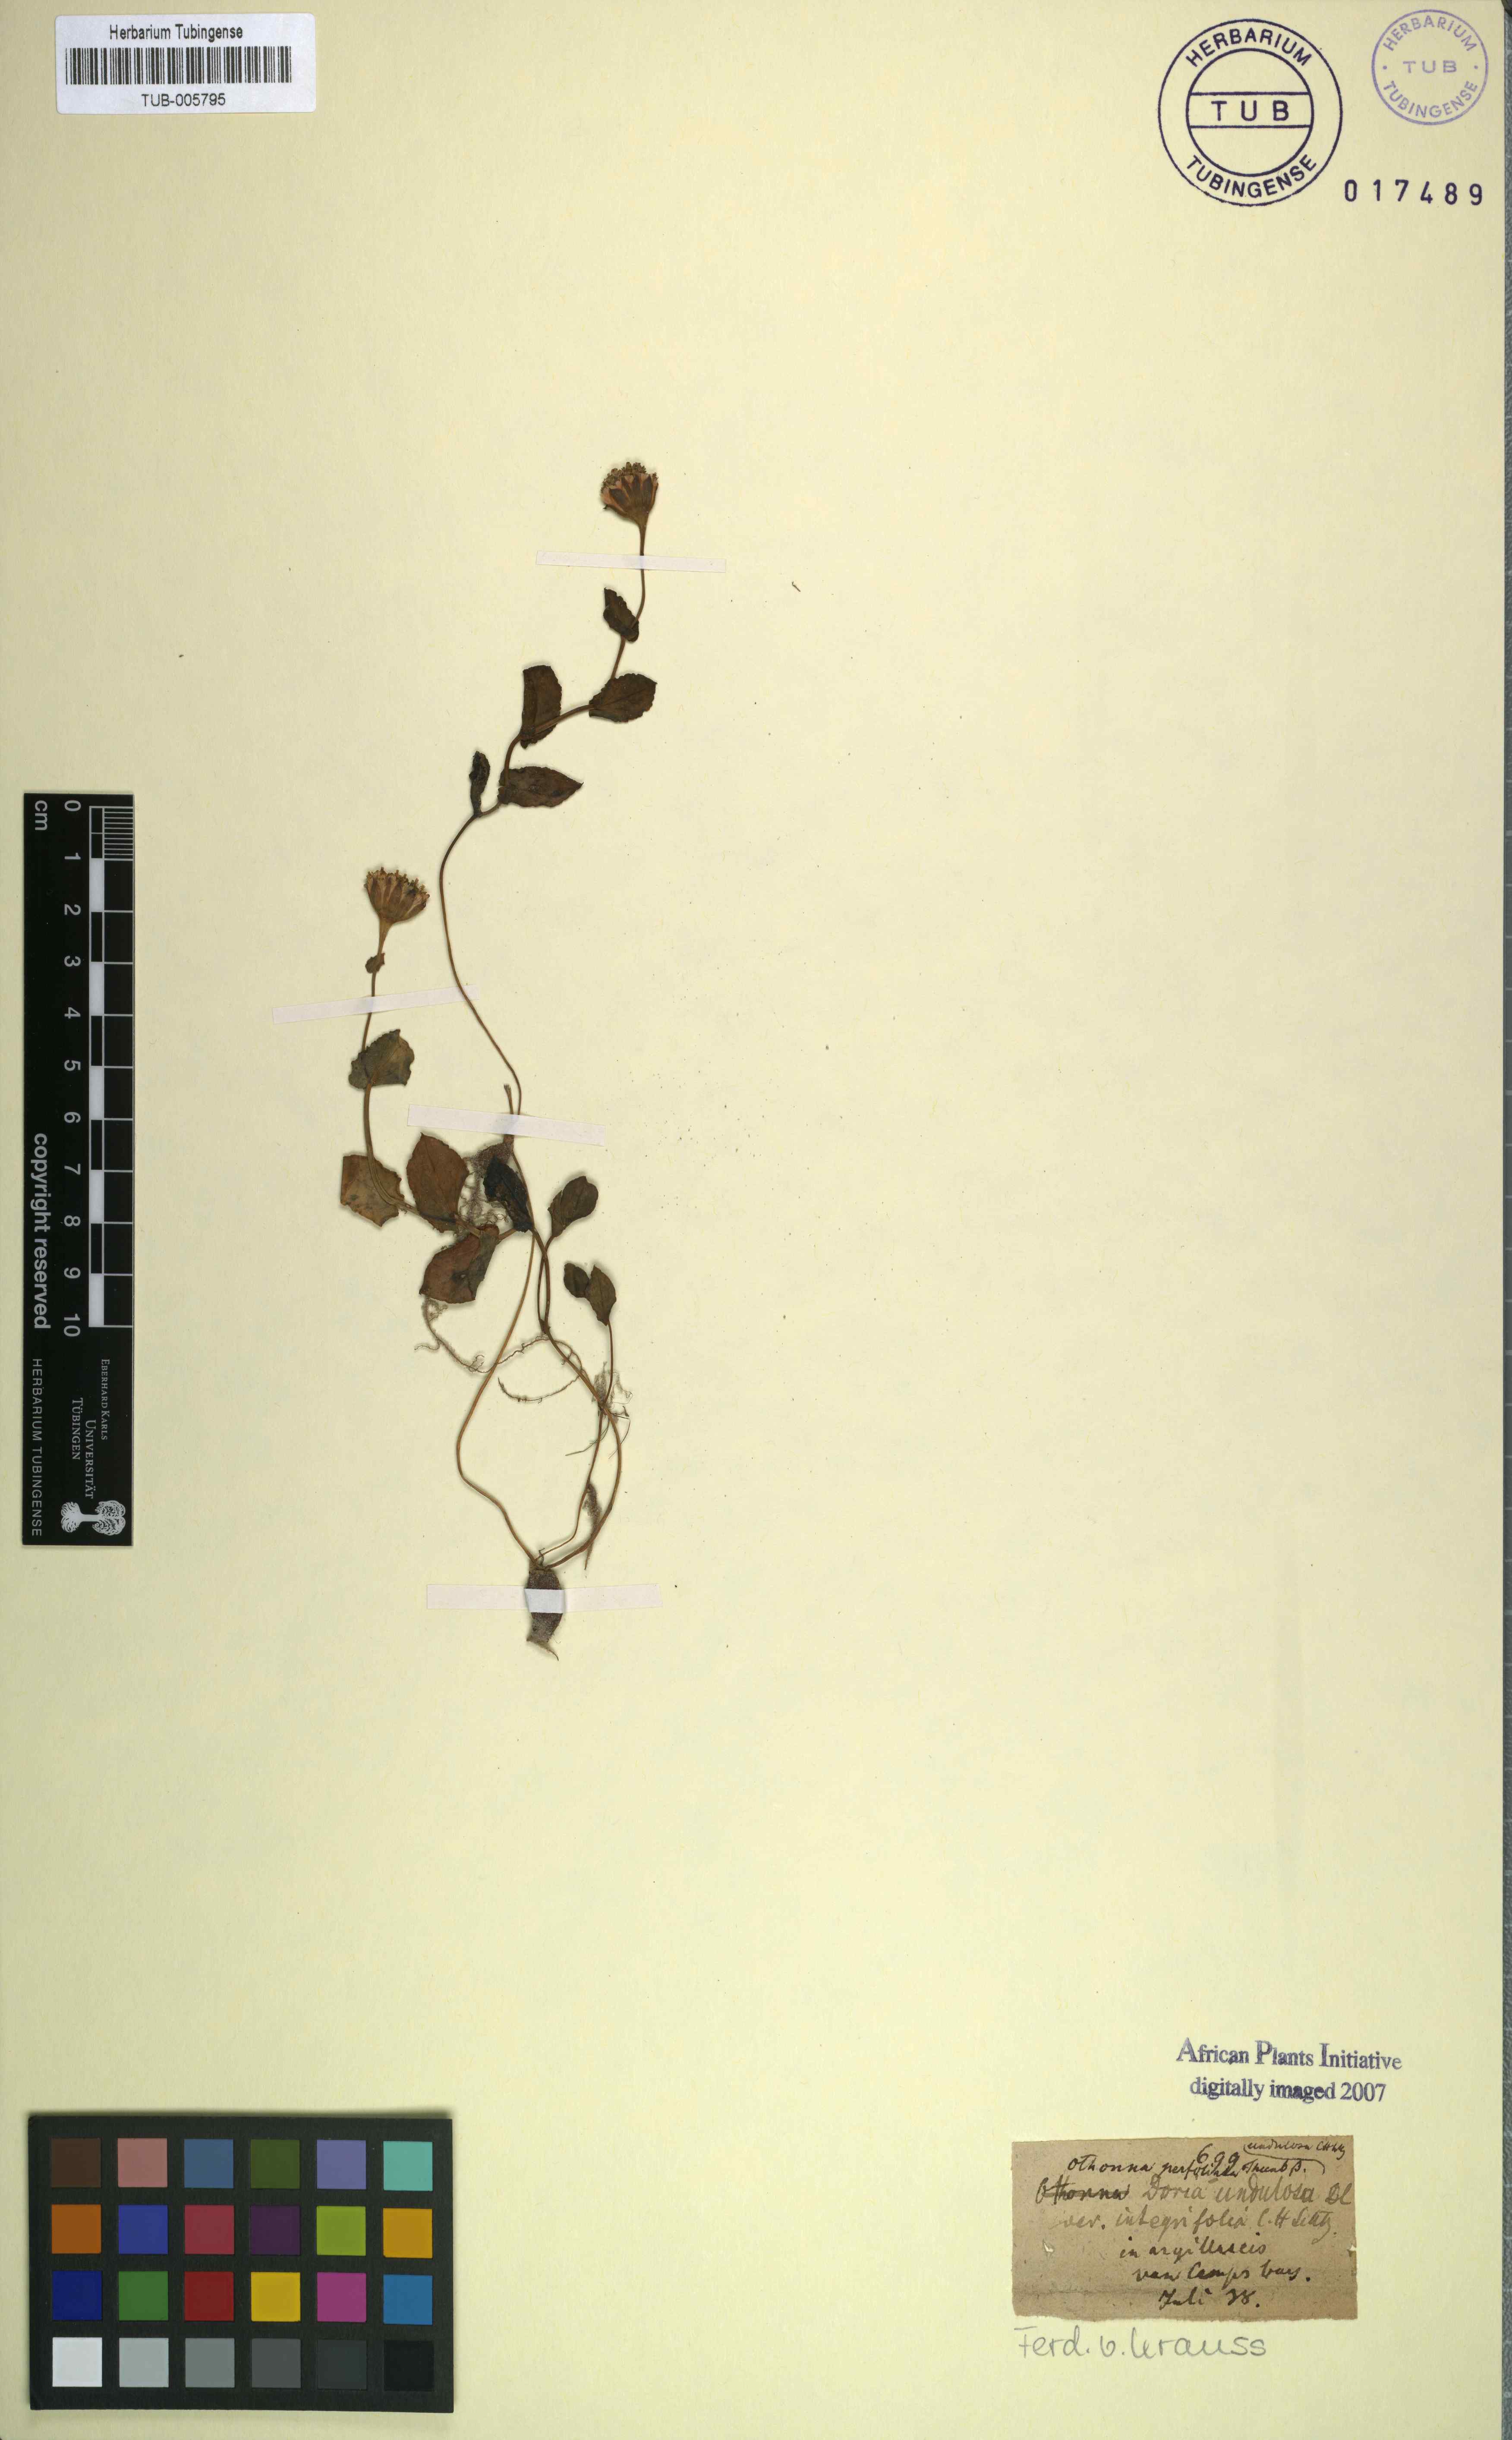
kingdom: Plantae
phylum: Tracheophyta
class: Magnoliopsida
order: Asterales
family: Asteraceae
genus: Othonna
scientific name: Othonna perfoliata
